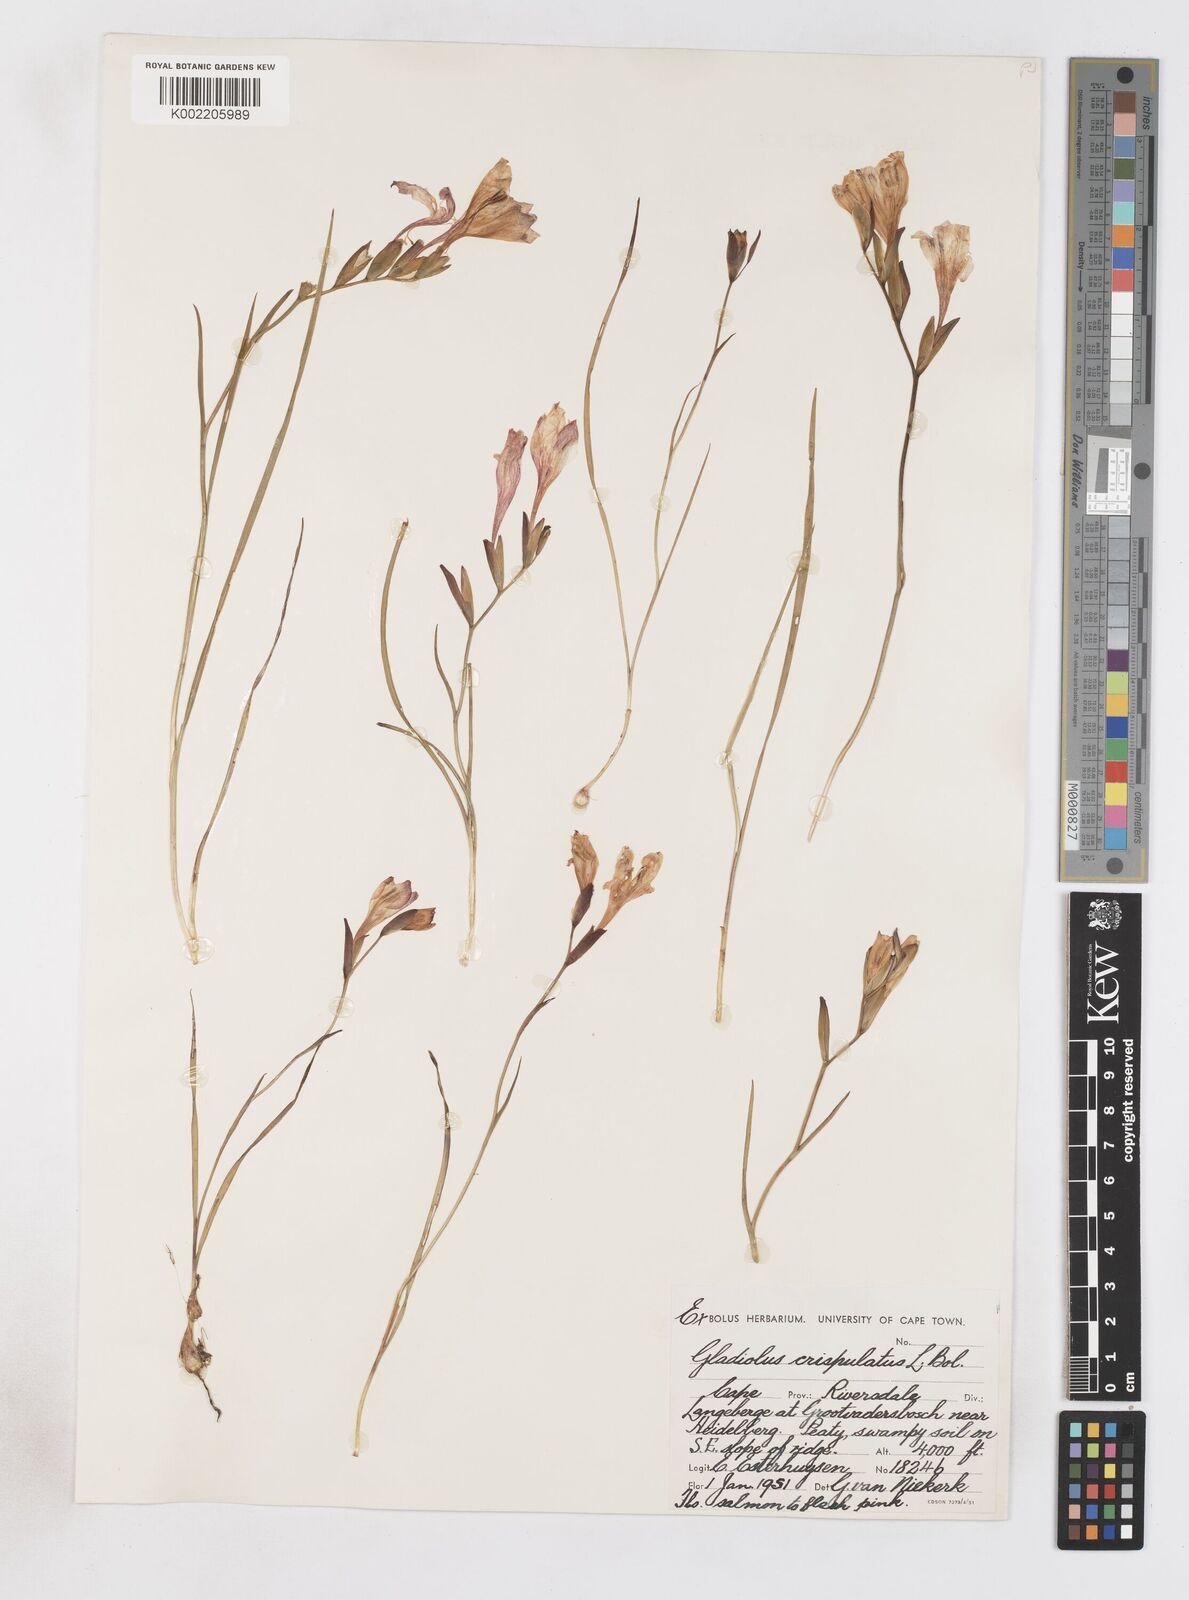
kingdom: Plantae
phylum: Tracheophyta
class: Liliopsida
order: Asparagales
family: Iridaceae
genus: Gladiolus
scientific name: Gladiolus oreocharis
